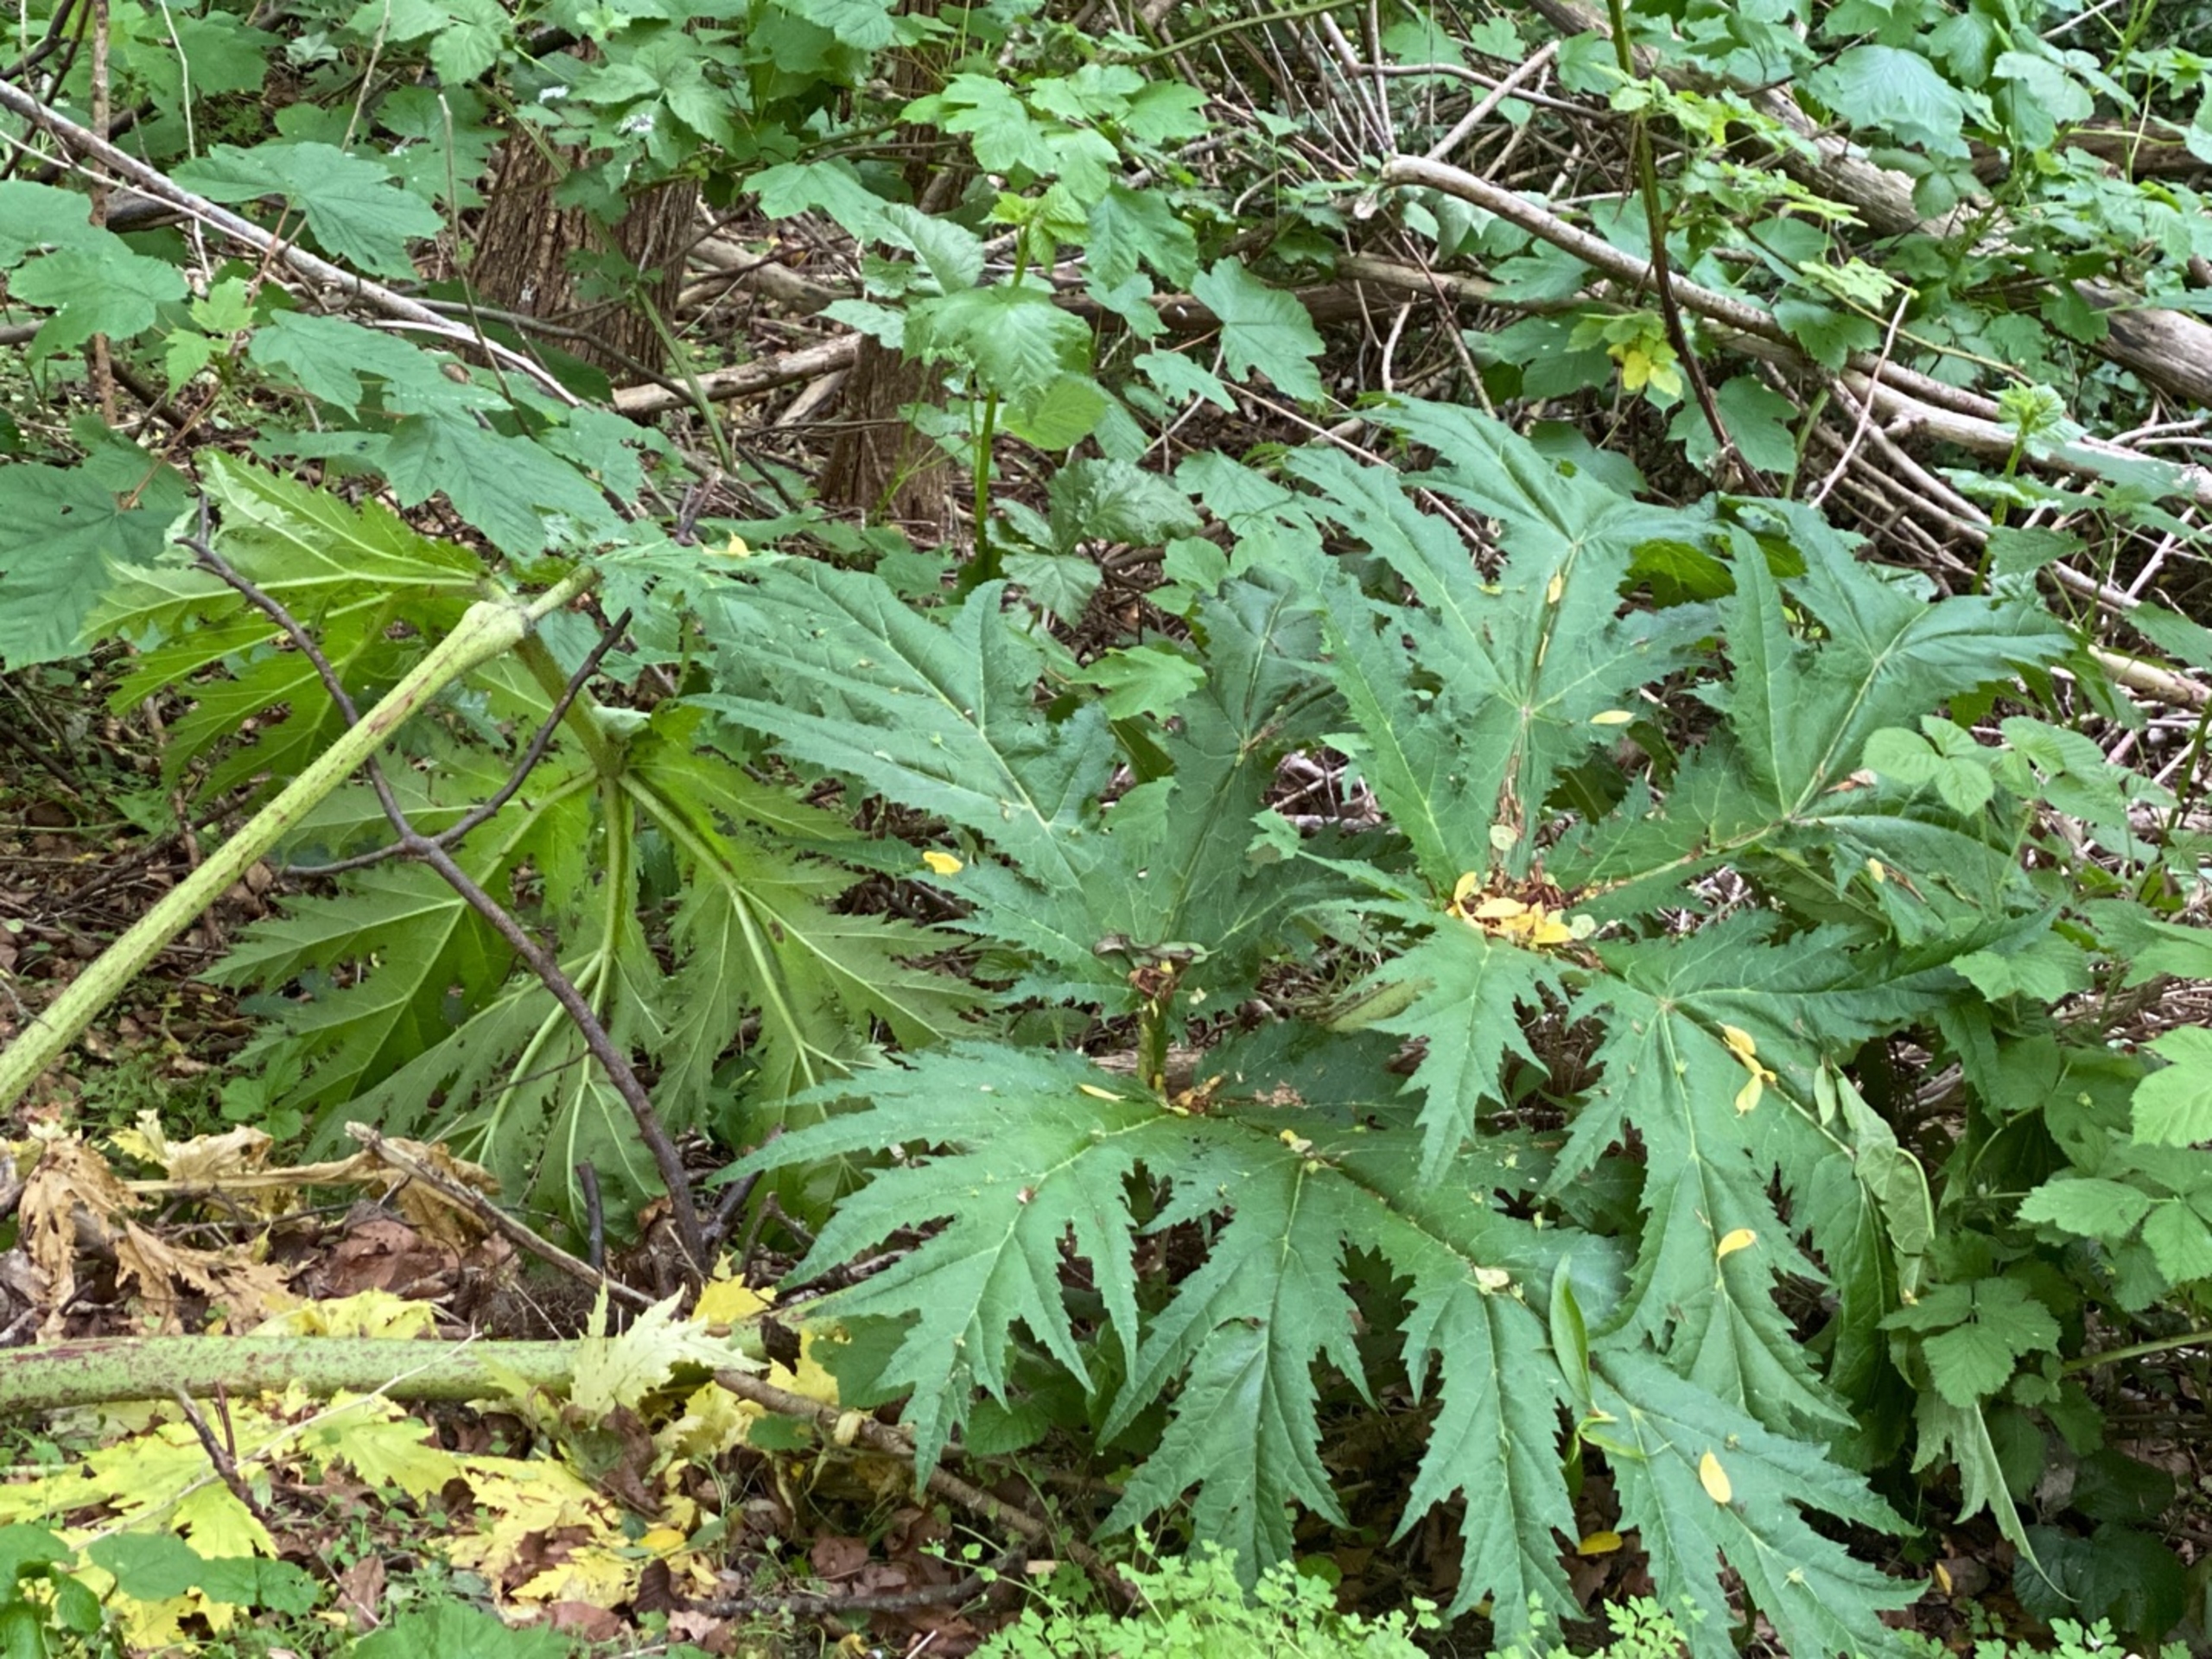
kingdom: Plantae
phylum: Tracheophyta
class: Magnoliopsida
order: Apiales
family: Apiaceae
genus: Heracleum
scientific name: Heracleum mantegazzianum
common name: Kæmpe-bjørneklo
